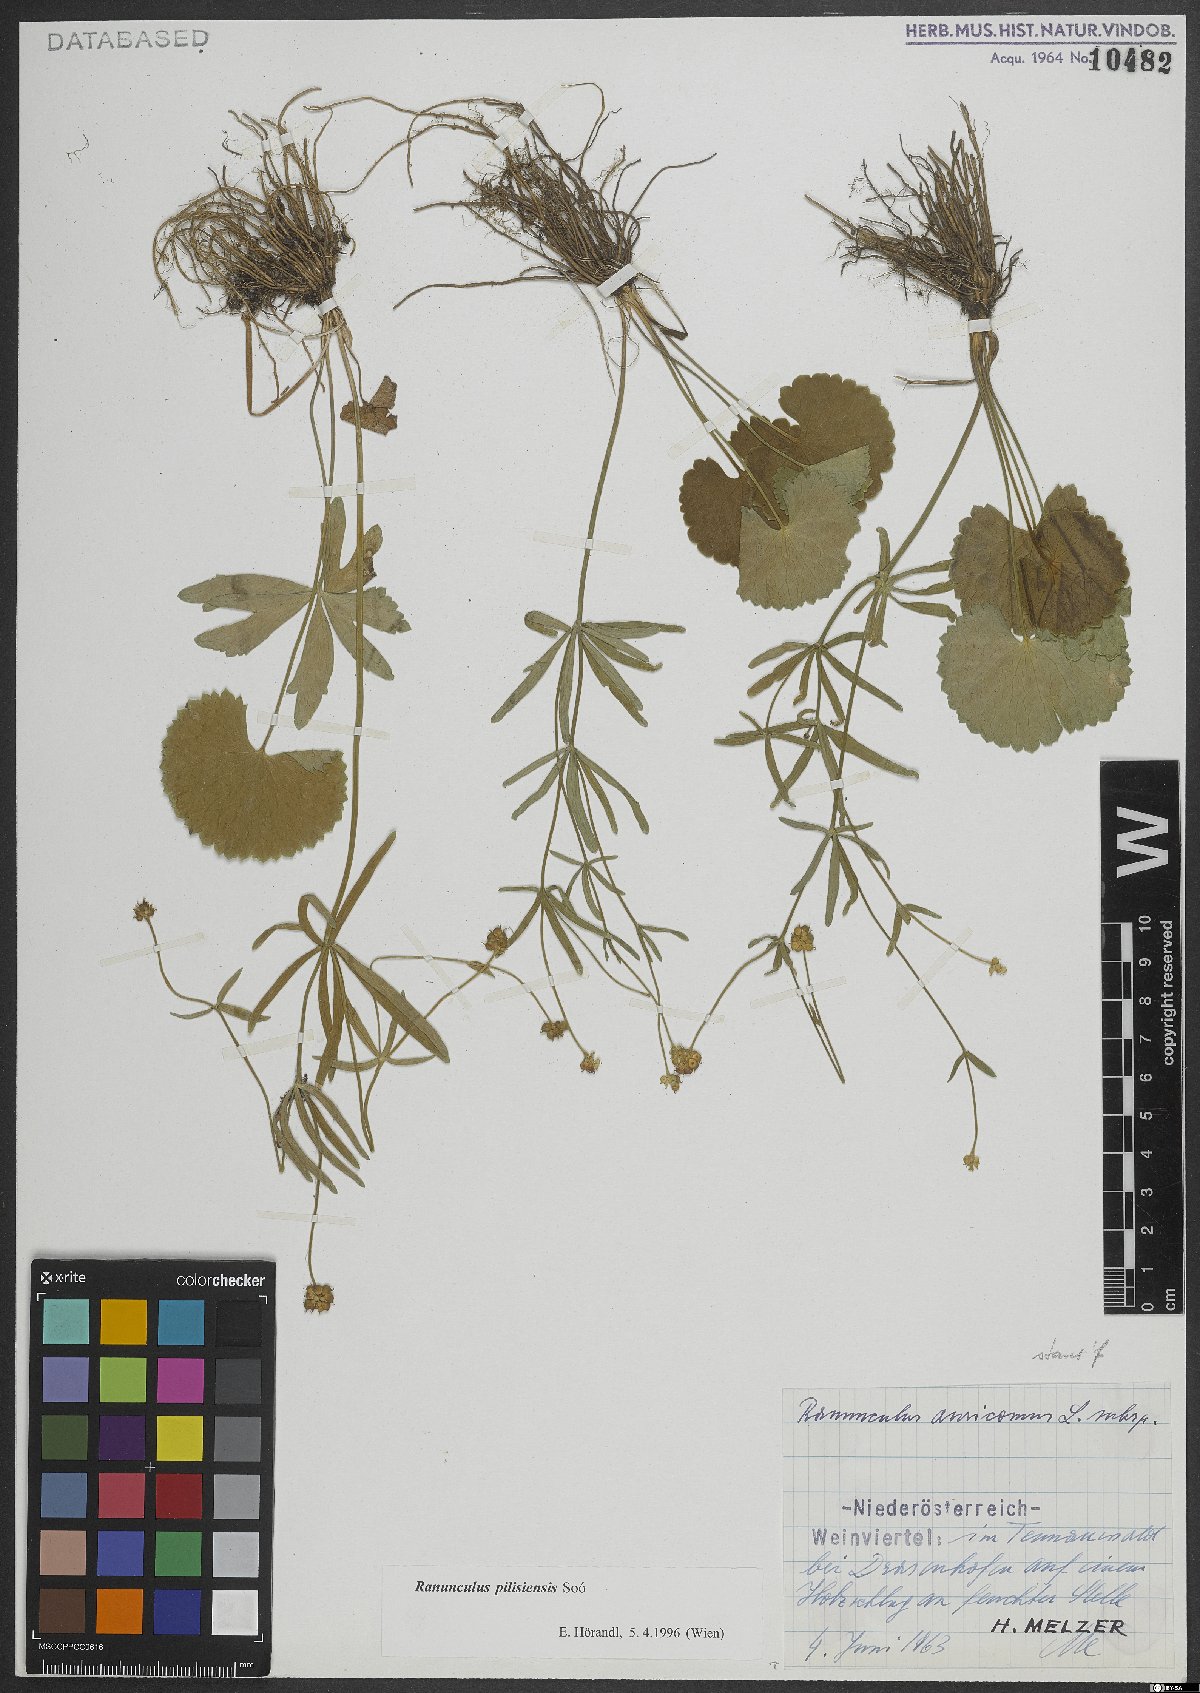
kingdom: Plantae
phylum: Tracheophyta
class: Magnoliopsida
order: Ranunculales
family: Ranunculaceae
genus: Ranunculus
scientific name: Ranunculus pilisiensis
